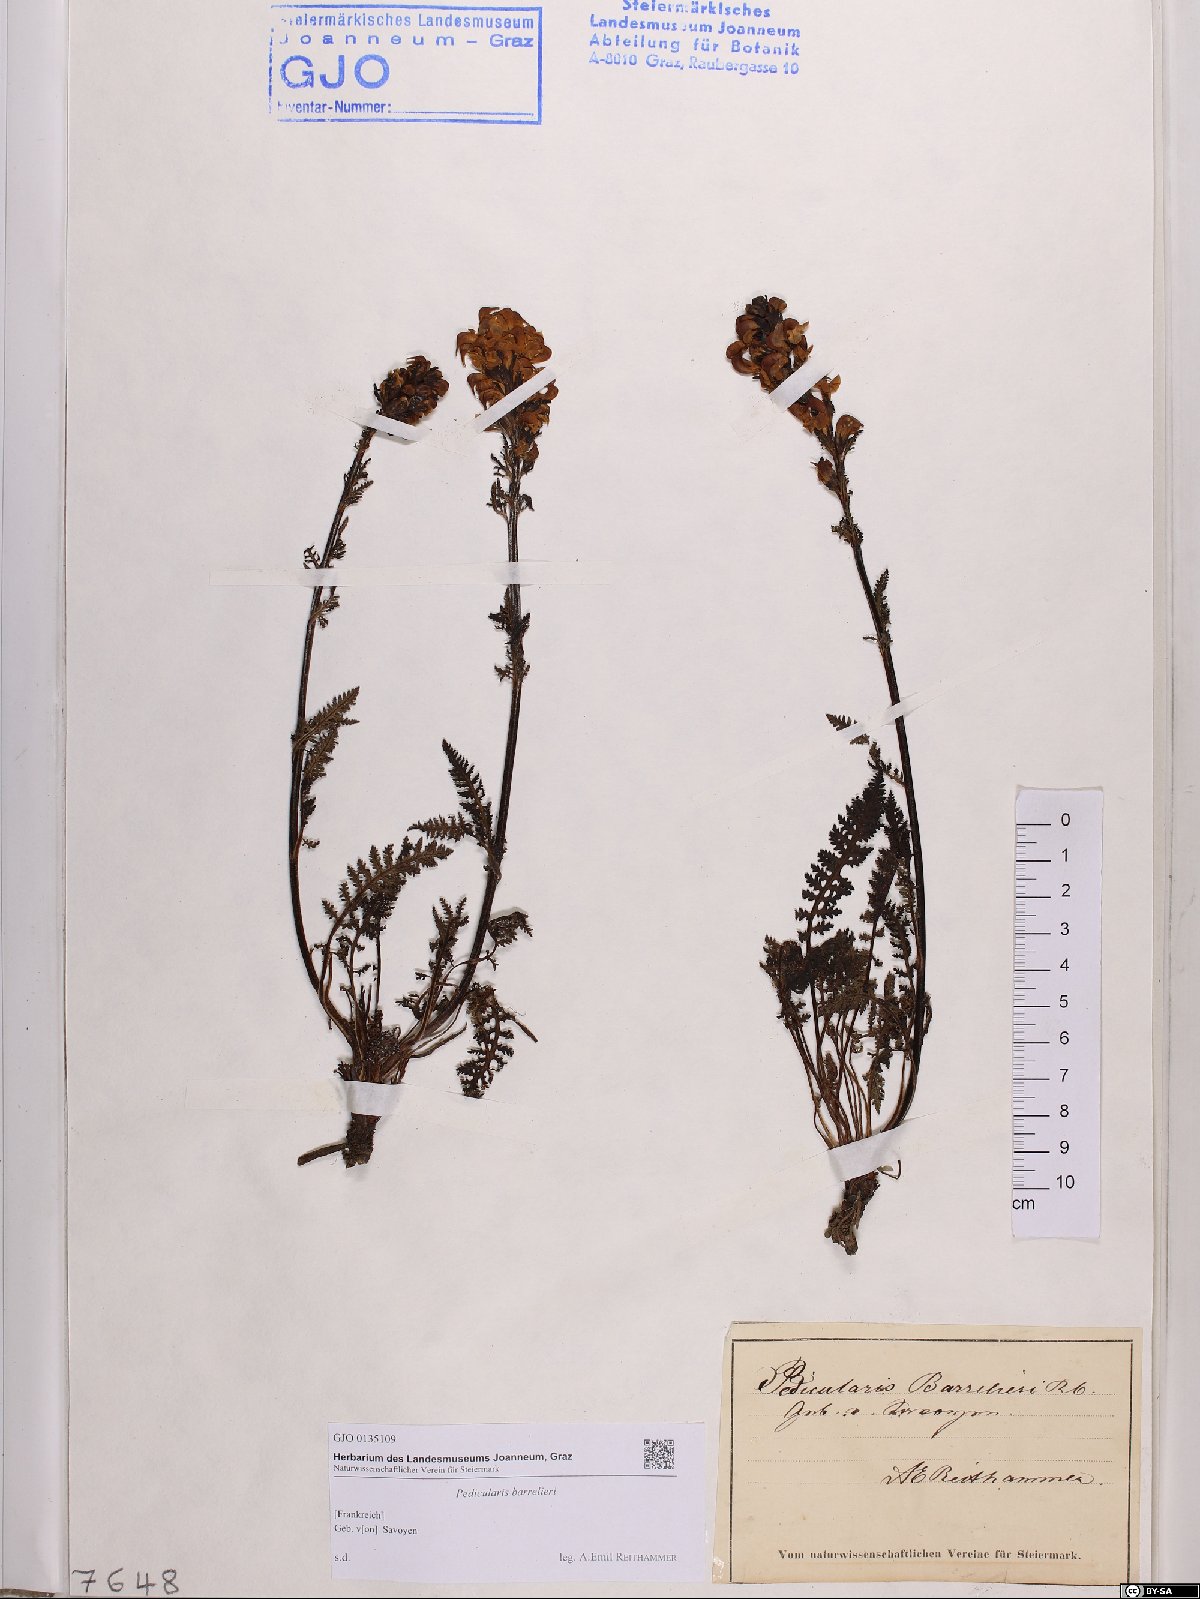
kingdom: Plantae
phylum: Tracheophyta
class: Magnoliopsida
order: Lamiales
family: Orobanchaceae
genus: Pedicularis
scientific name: Pedicularis ascendens
